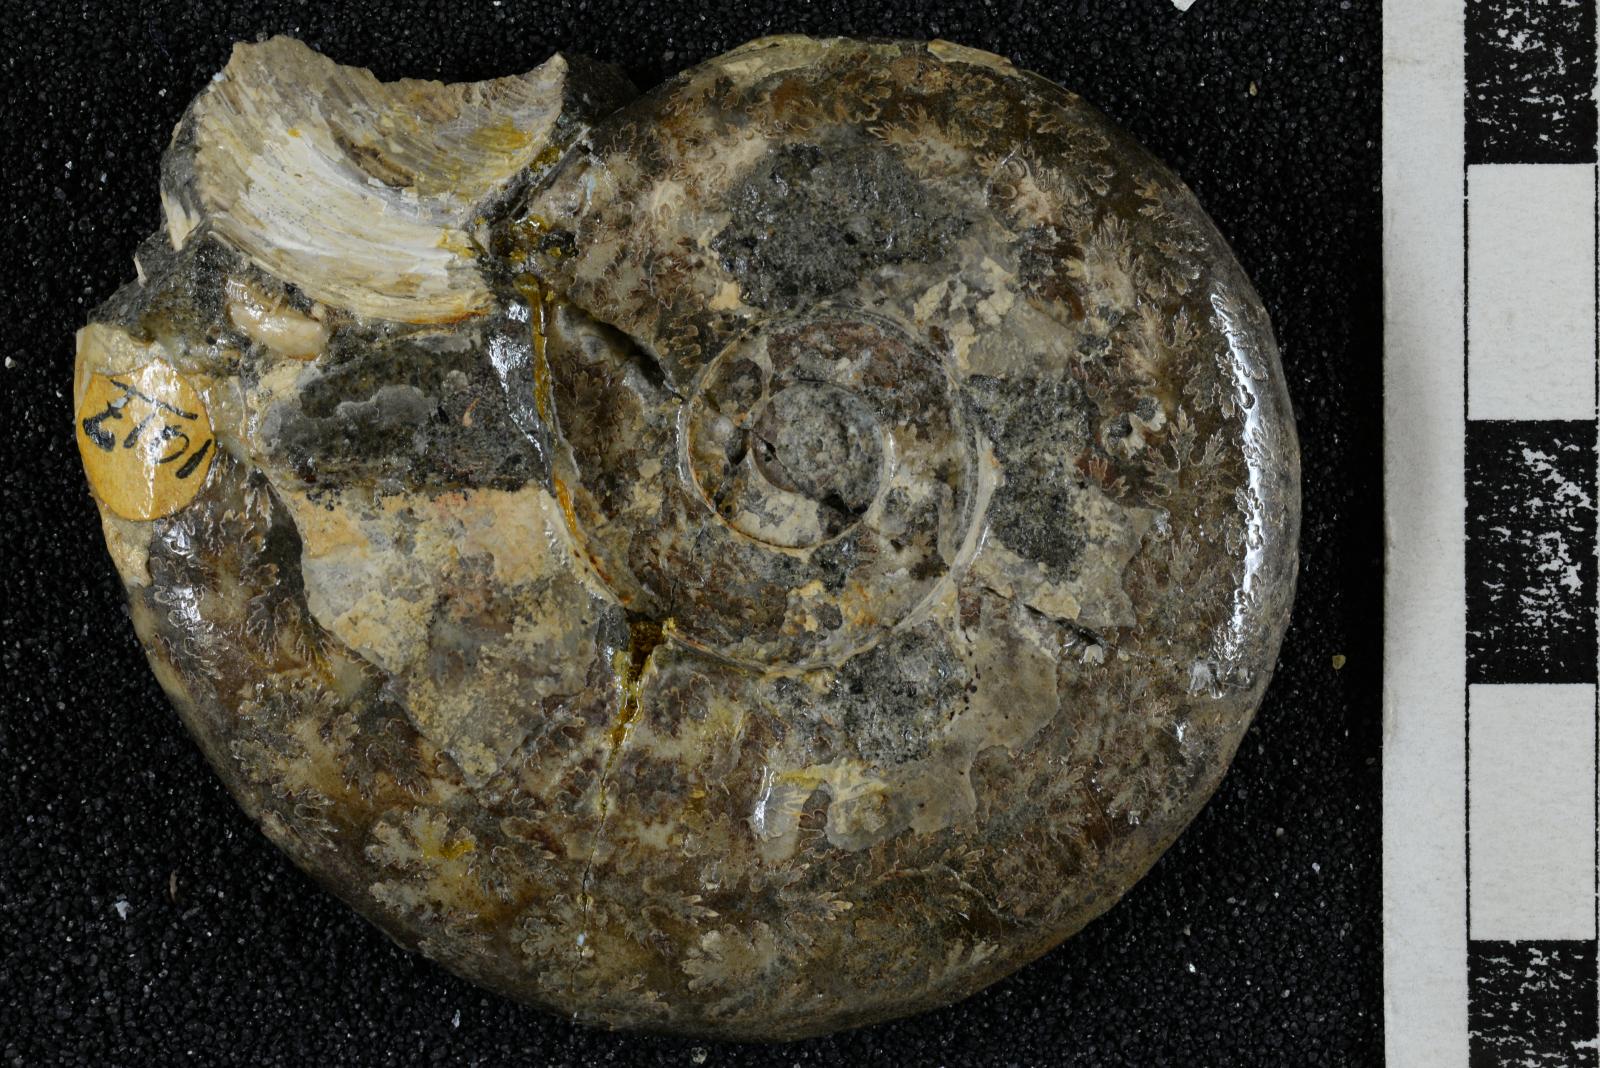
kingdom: Animalia
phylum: Mollusca
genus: Gardeniceras
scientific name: Gardeniceras Hauericeras angustum
